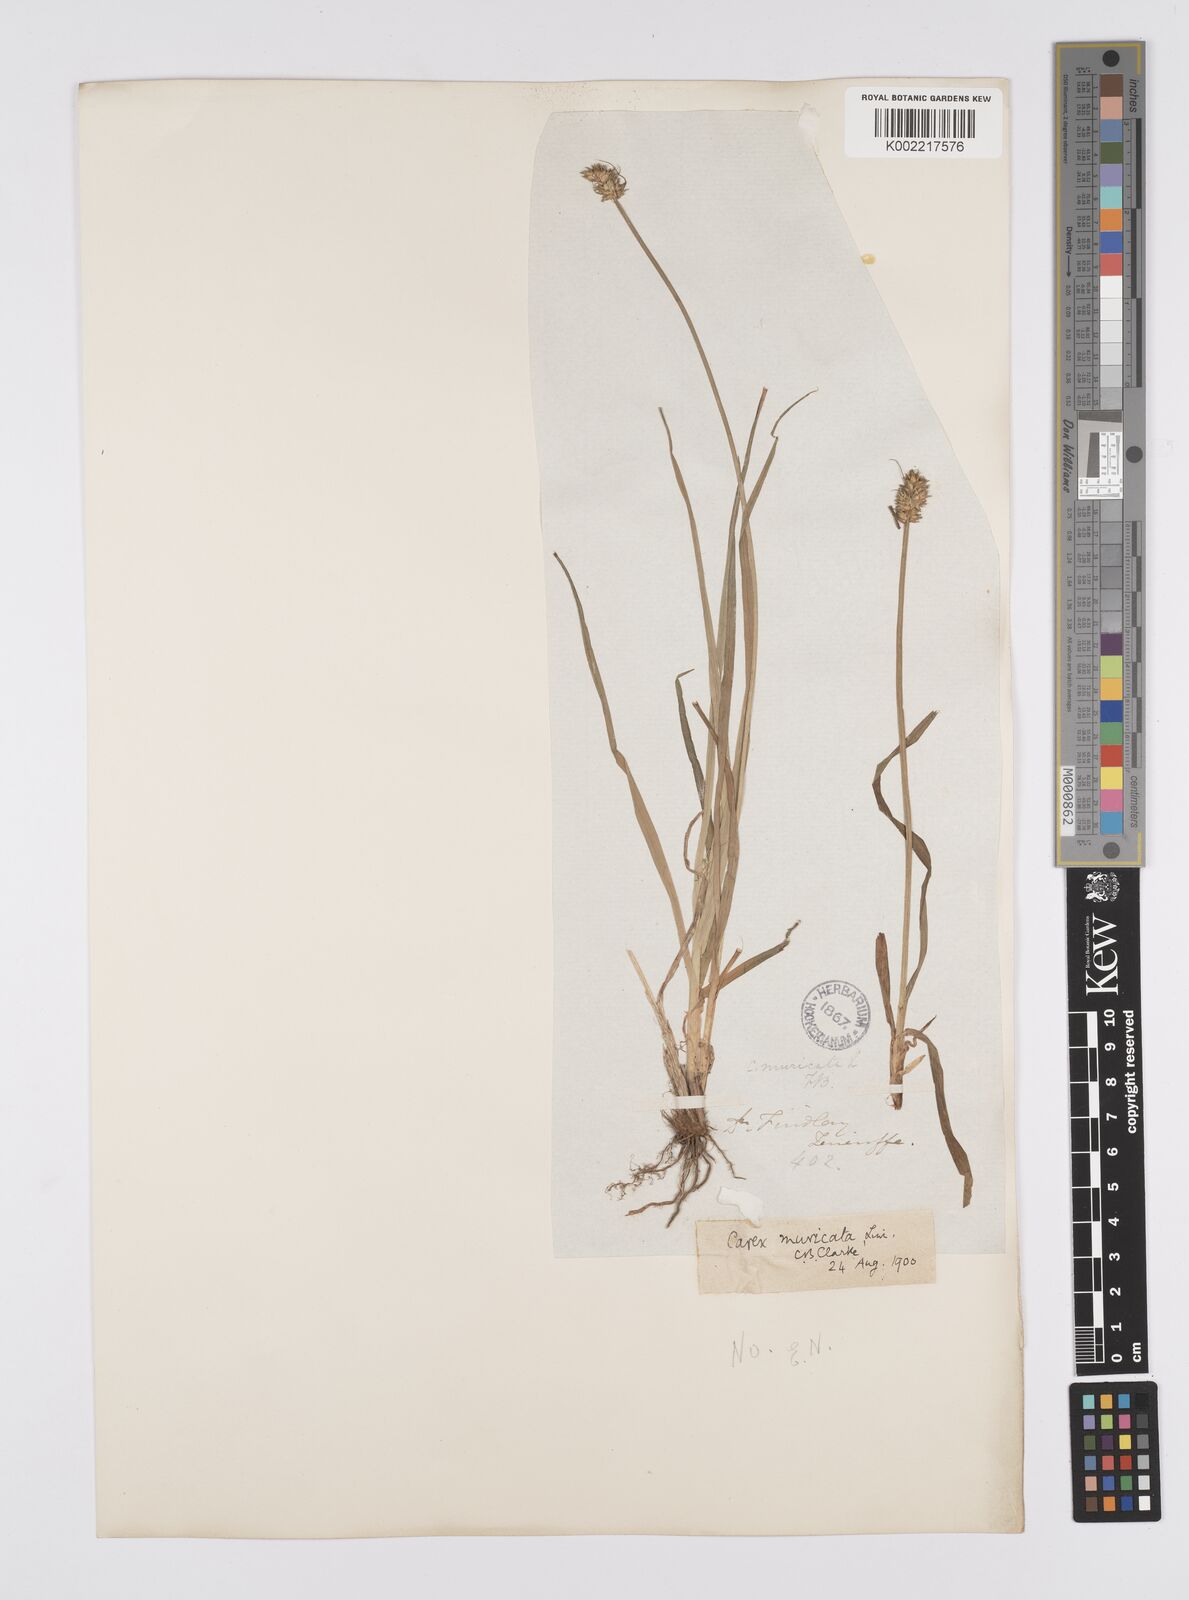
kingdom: Plantae
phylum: Tracheophyta
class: Liliopsida
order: Poales
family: Cyperaceae
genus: Carex
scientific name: Carex vulpina
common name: True fox-sedge
